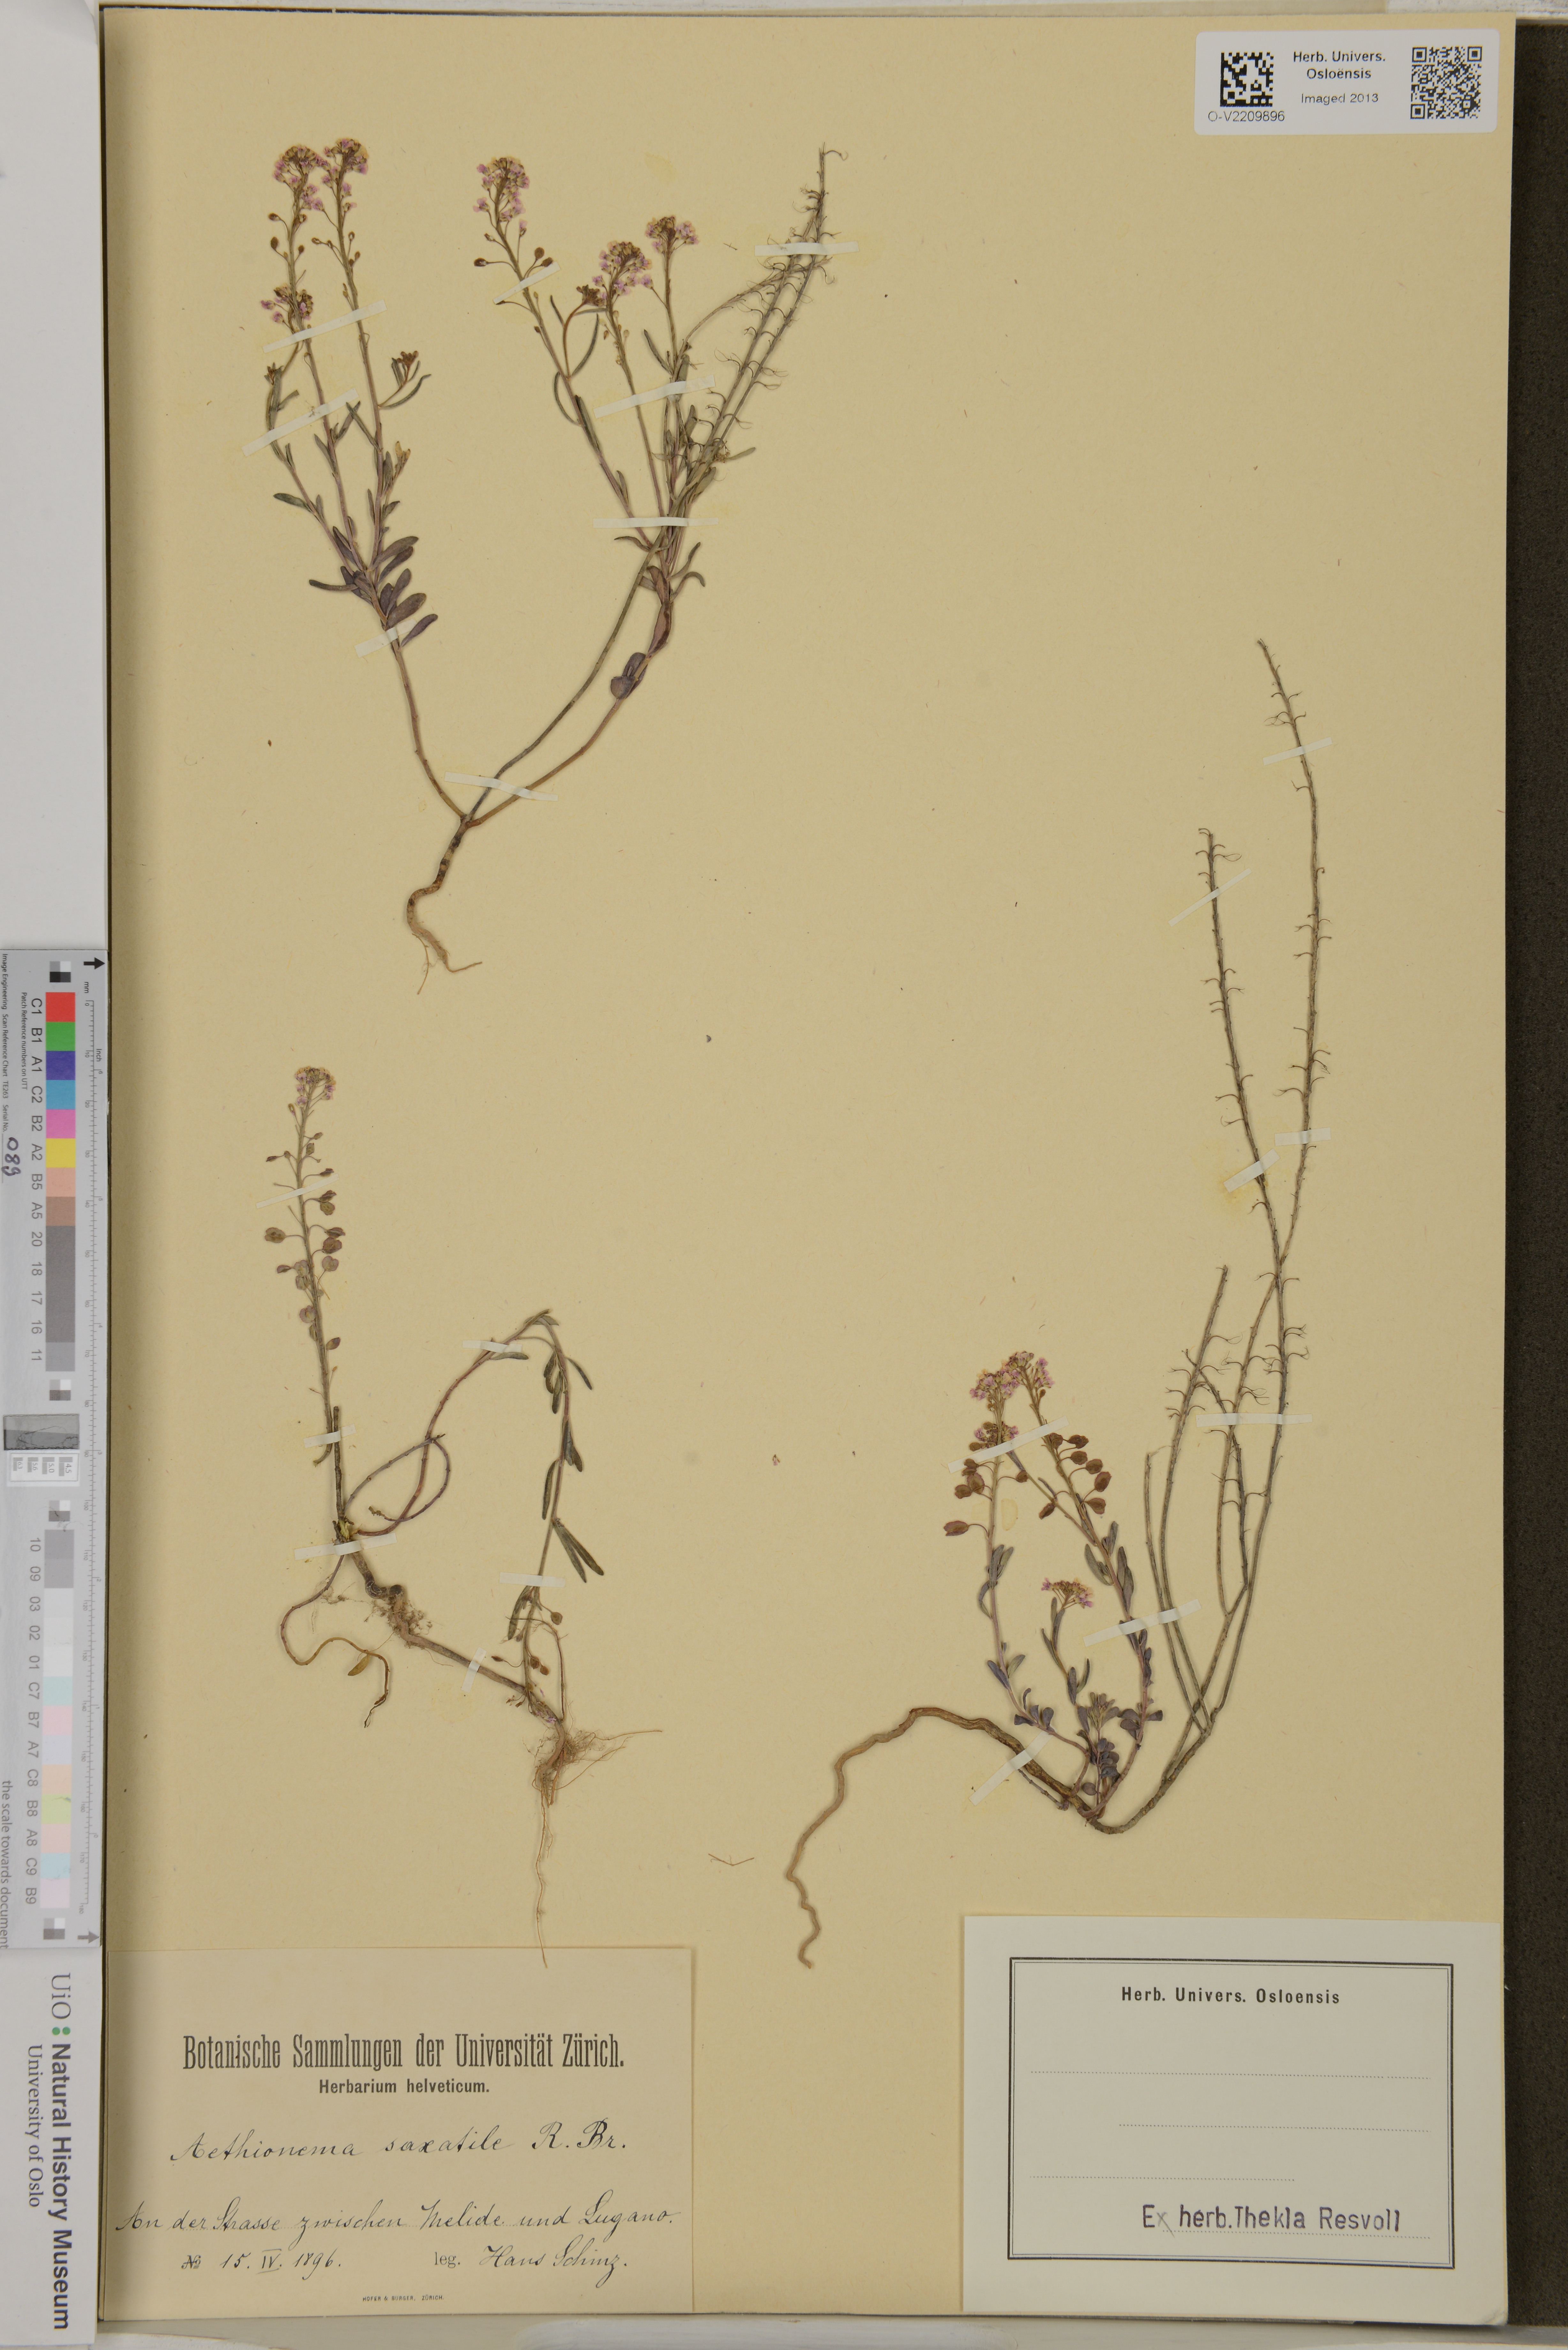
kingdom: Plantae
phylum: Tracheophyta
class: Magnoliopsida
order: Brassicales
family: Brassicaceae
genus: Aethionema
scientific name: Aethionema saxatile
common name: Burnt candytuft
